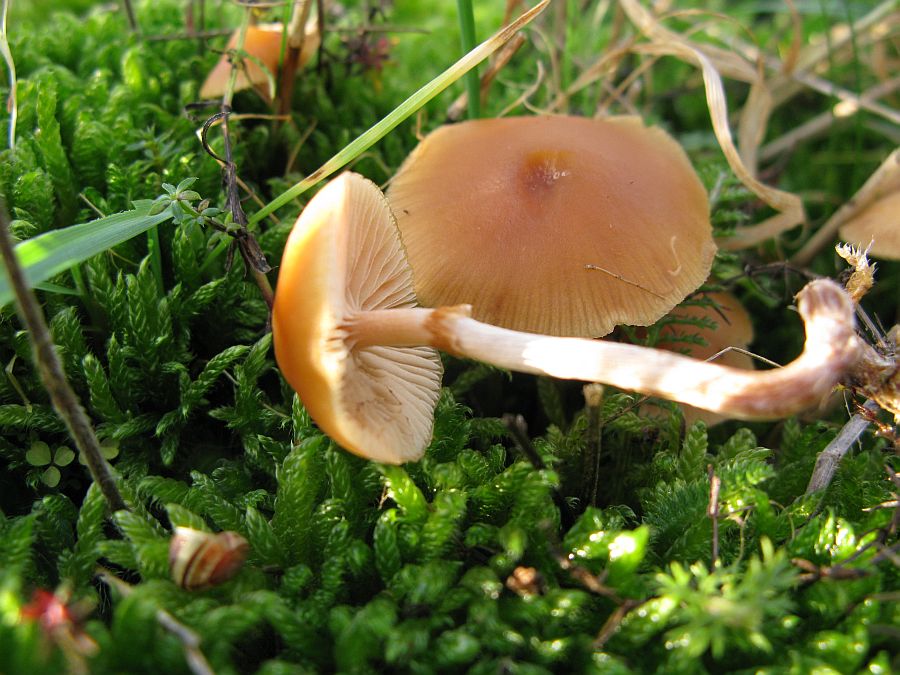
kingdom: Fungi
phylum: Basidiomycota
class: Agaricomycetes
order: Agaricales
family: Hymenogastraceae
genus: Galerina
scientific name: Galerina esteve-raventosii
